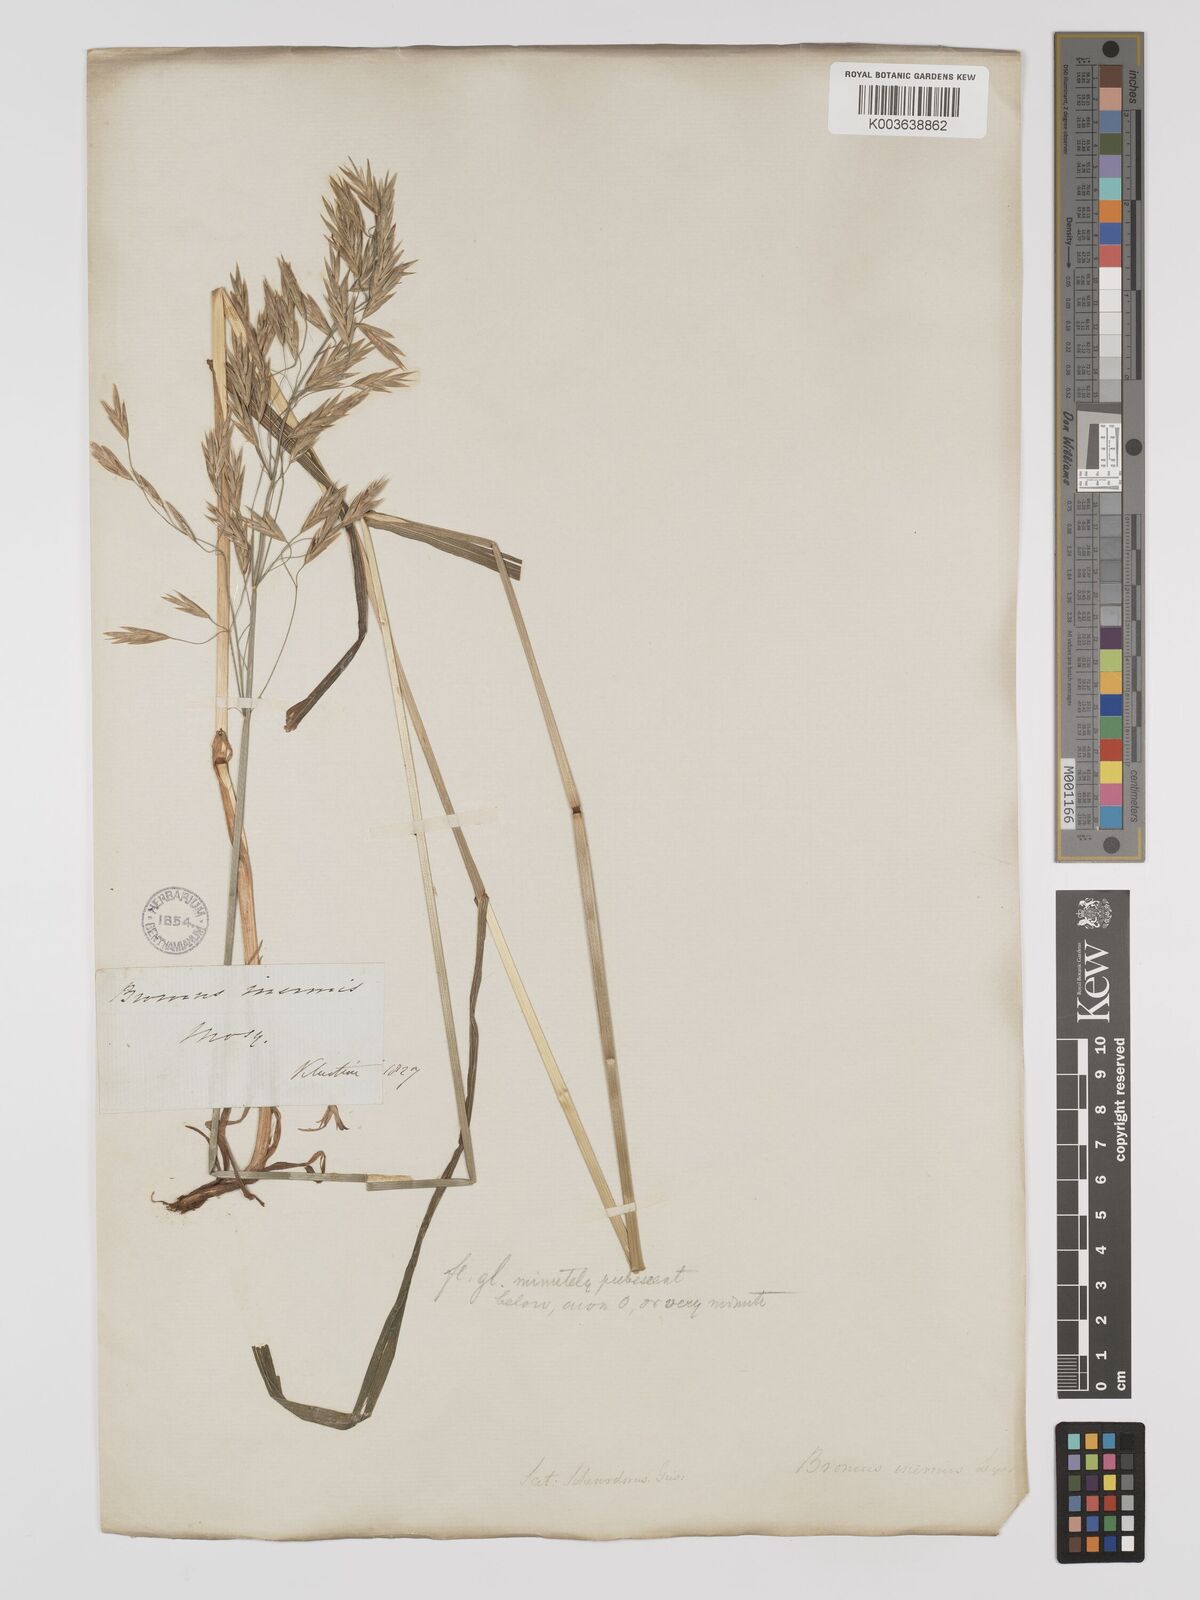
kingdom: Plantae
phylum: Tracheophyta
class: Liliopsida
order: Poales
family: Poaceae
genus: Bromus
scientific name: Bromus inermis
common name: Smooth brome
